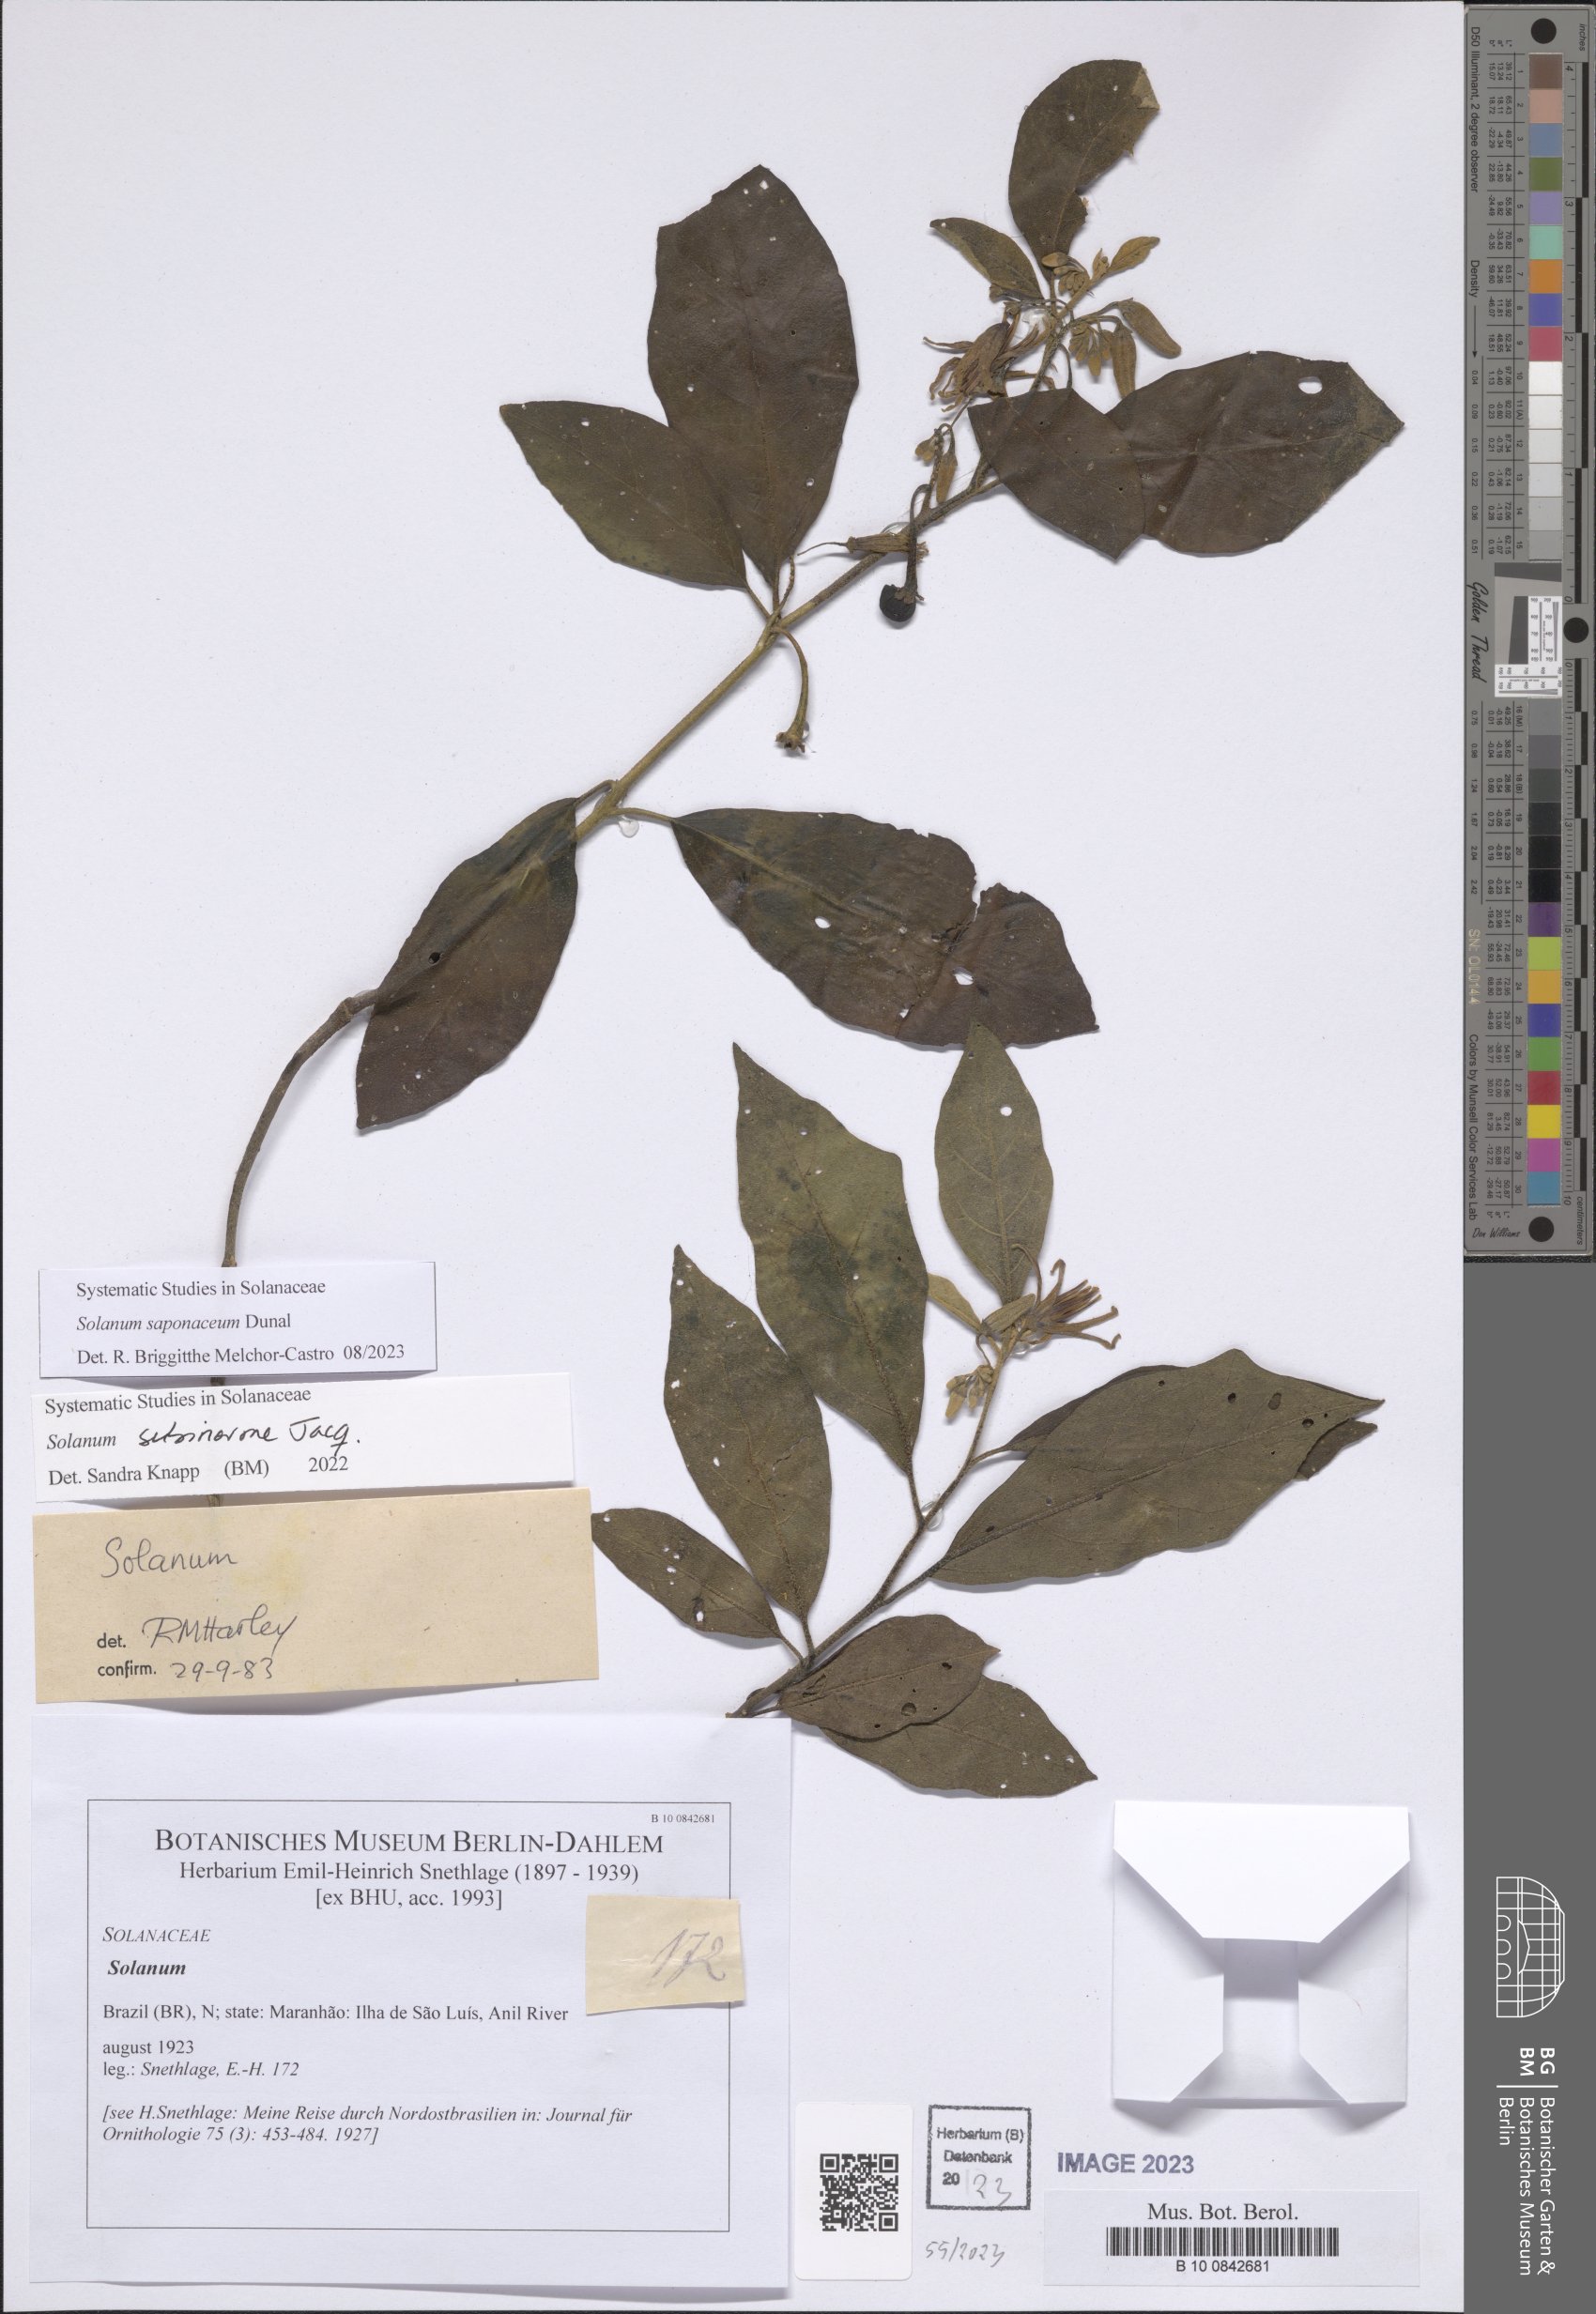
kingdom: Plantae
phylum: Tracheophyta
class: Magnoliopsida
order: Solanales
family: Solanaceae
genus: Solanum
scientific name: Solanum saponaceum
